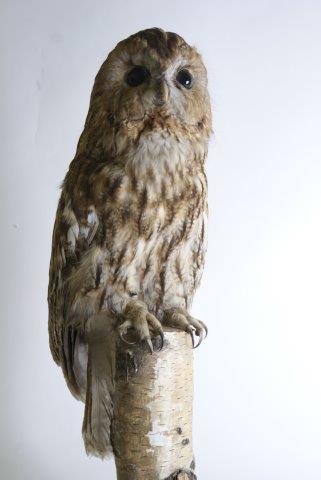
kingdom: Animalia
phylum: Chordata
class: Aves
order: Strigiformes
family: Strigidae
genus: Strix
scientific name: Strix aluco
